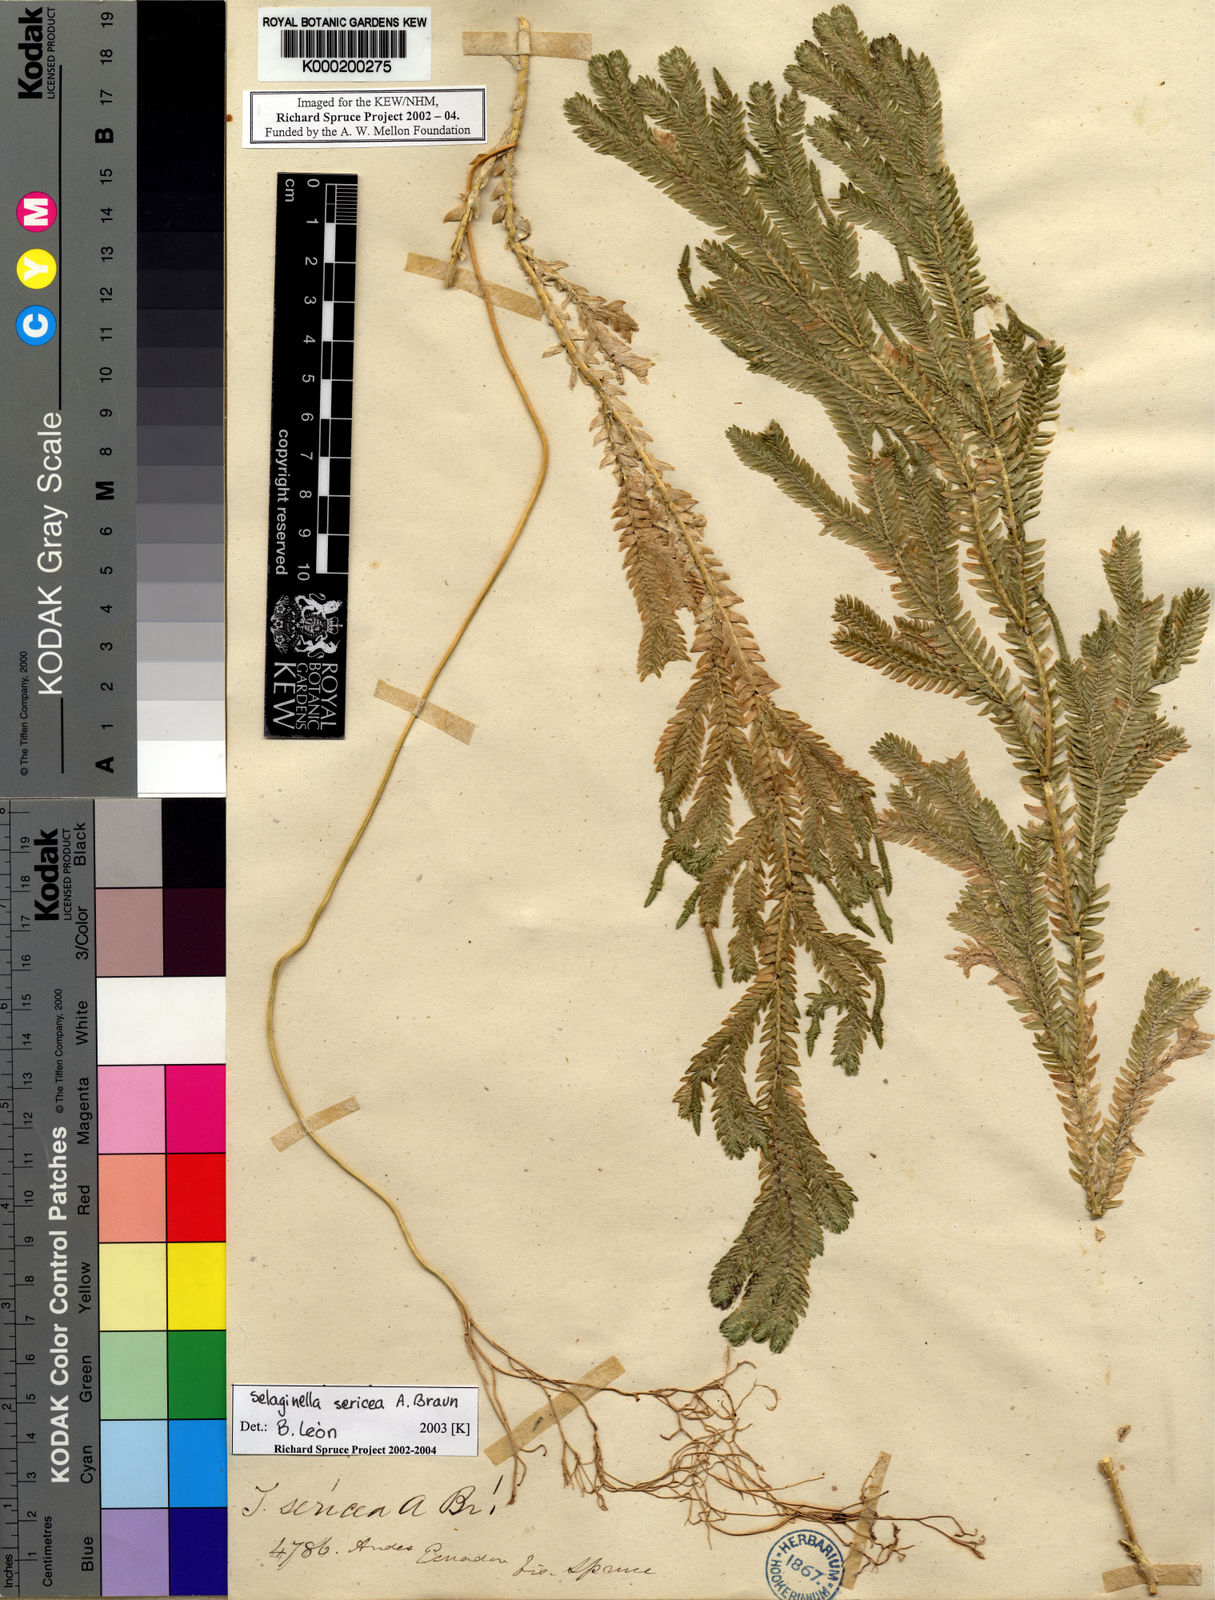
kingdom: Plantae
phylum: Tracheophyta
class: Lycopodiopsida
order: Selaginellales
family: Selaginellaceae
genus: Selaginella
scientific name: Selaginella
